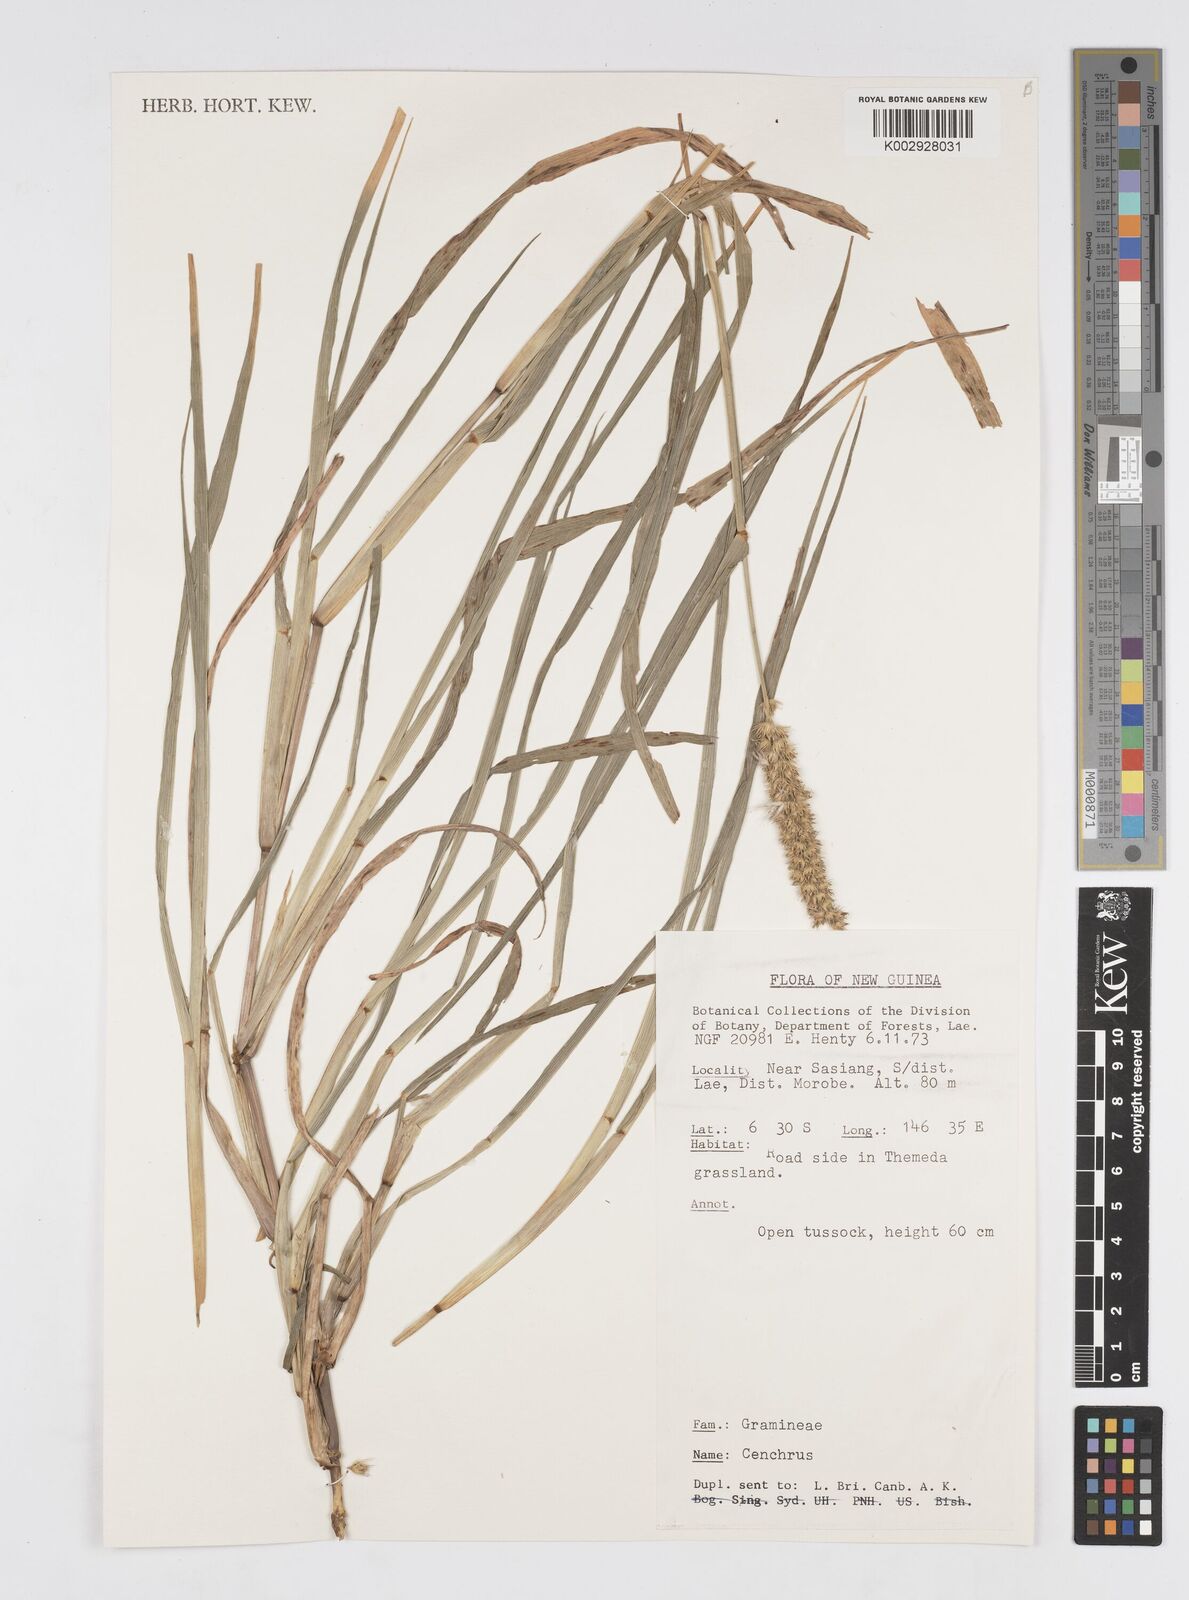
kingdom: Plantae
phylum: Tracheophyta
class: Liliopsida
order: Poales
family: Poaceae
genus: Cenchrus
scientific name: Cenchrus brownii
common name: Slim-bristle sandbur
